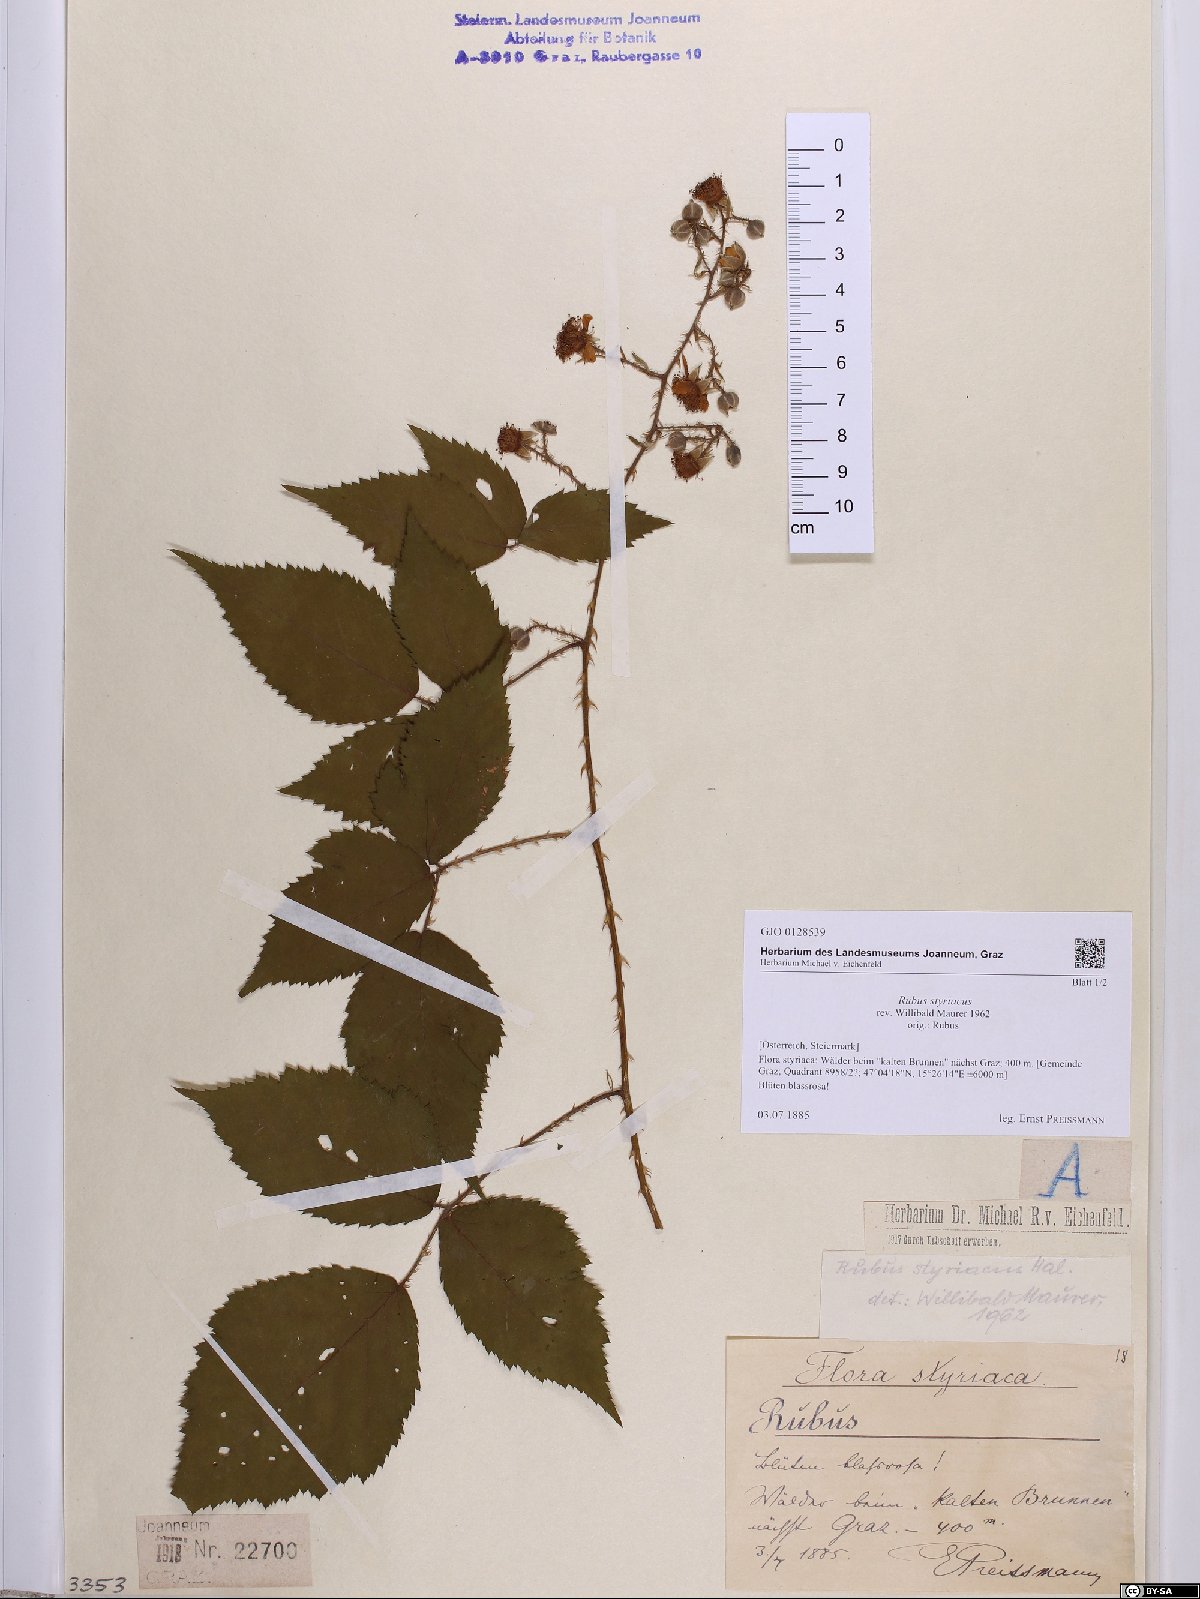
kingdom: Plantae
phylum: Tracheophyta
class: Magnoliopsida
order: Rosales
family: Rosaceae
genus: Rubus
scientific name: Rubus styriacus
